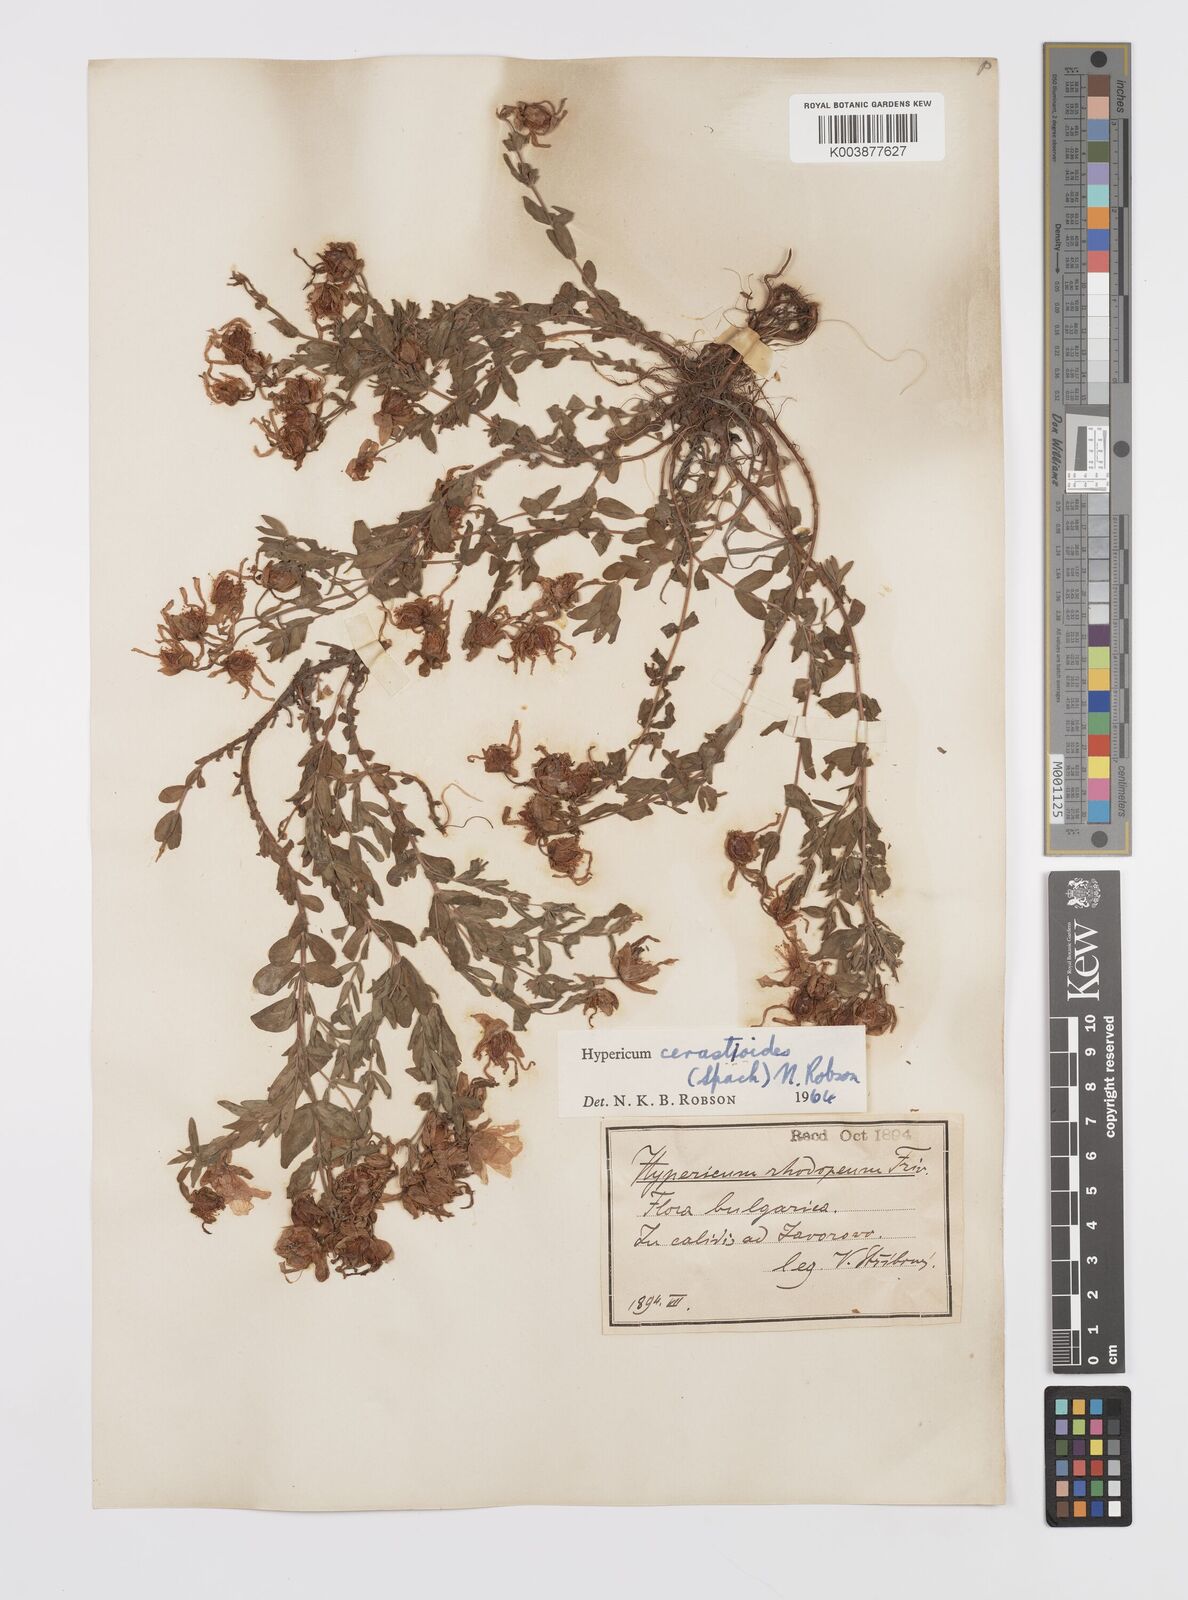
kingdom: Plantae
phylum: Tracheophyta
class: Magnoliopsida
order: Malpighiales
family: Hypericaceae
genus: Hypericum
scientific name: Hypericum cerastoides
